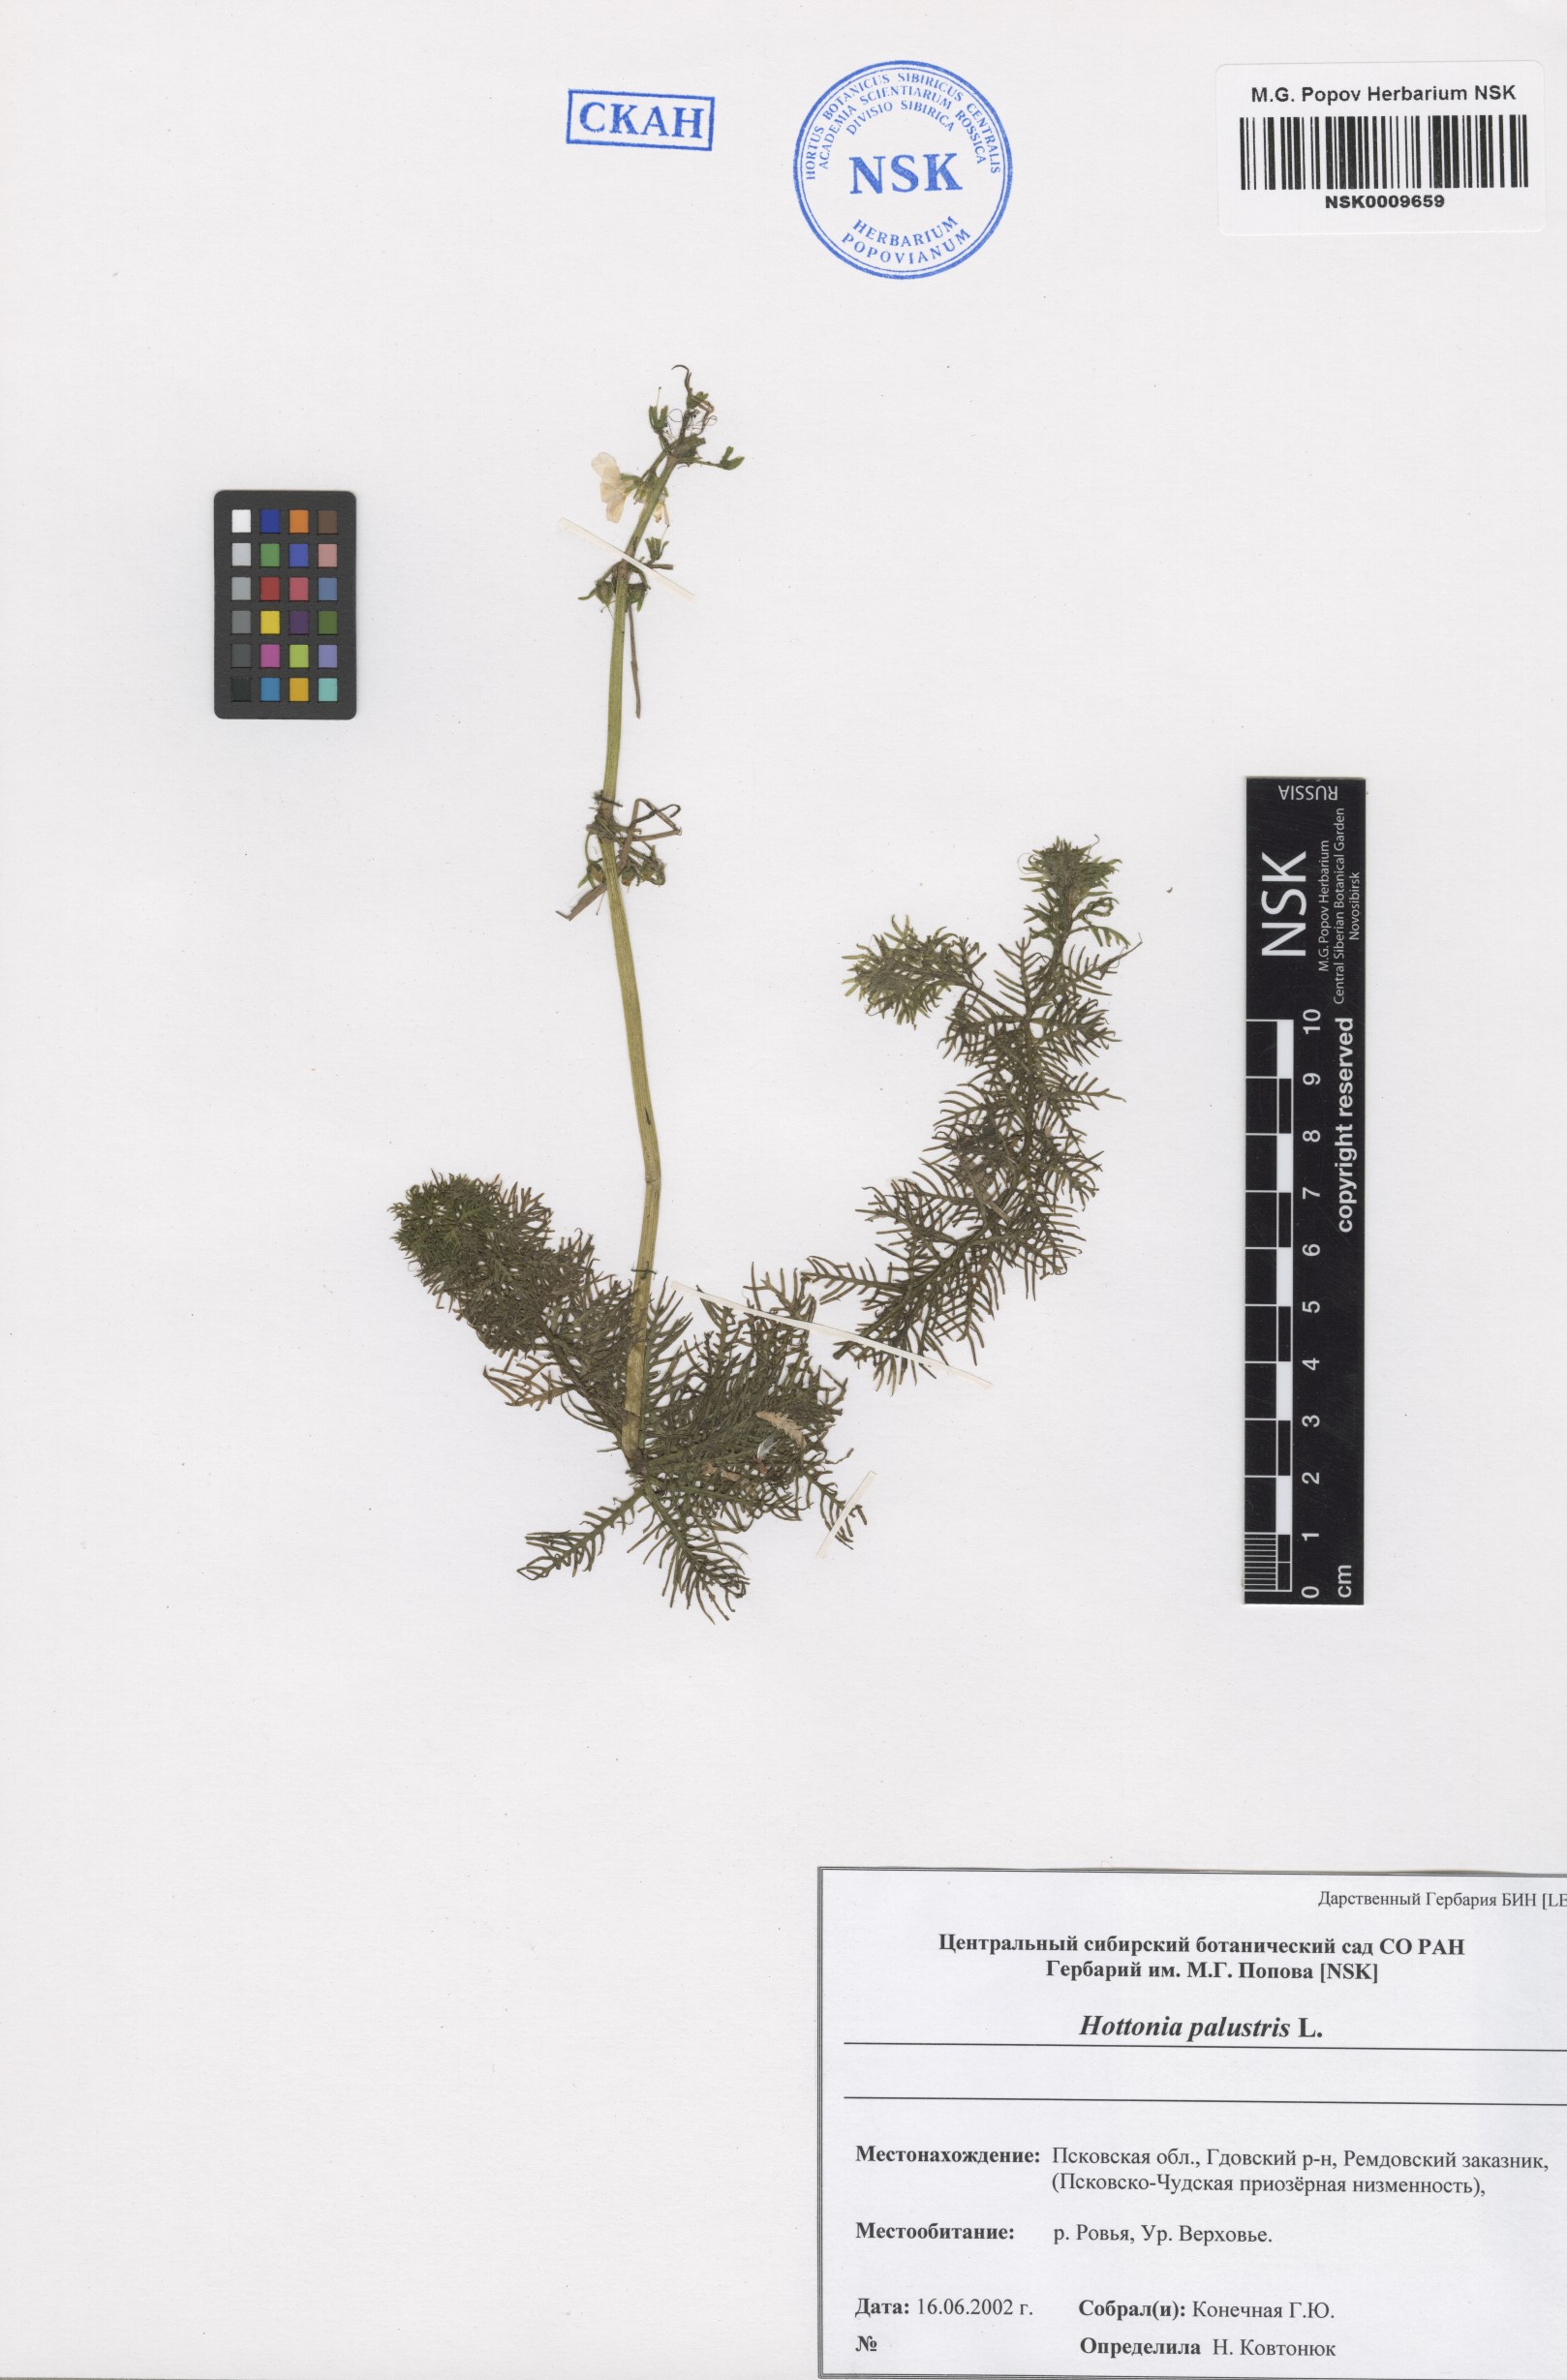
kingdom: Plantae
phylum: Tracheophyta
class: Magnoliopsida
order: Ericales
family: Primulaceae
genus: Hottonia
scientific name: Hottonia palustris
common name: Water-violet
